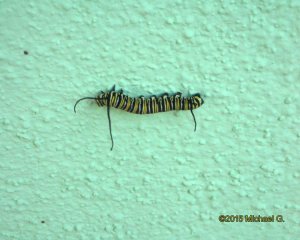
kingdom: Animalia
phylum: Arthropoda
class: Insecta
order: Lepidoptera
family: Nymphalidae
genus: Danaus
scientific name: Danaus plexippus
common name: Monarch
